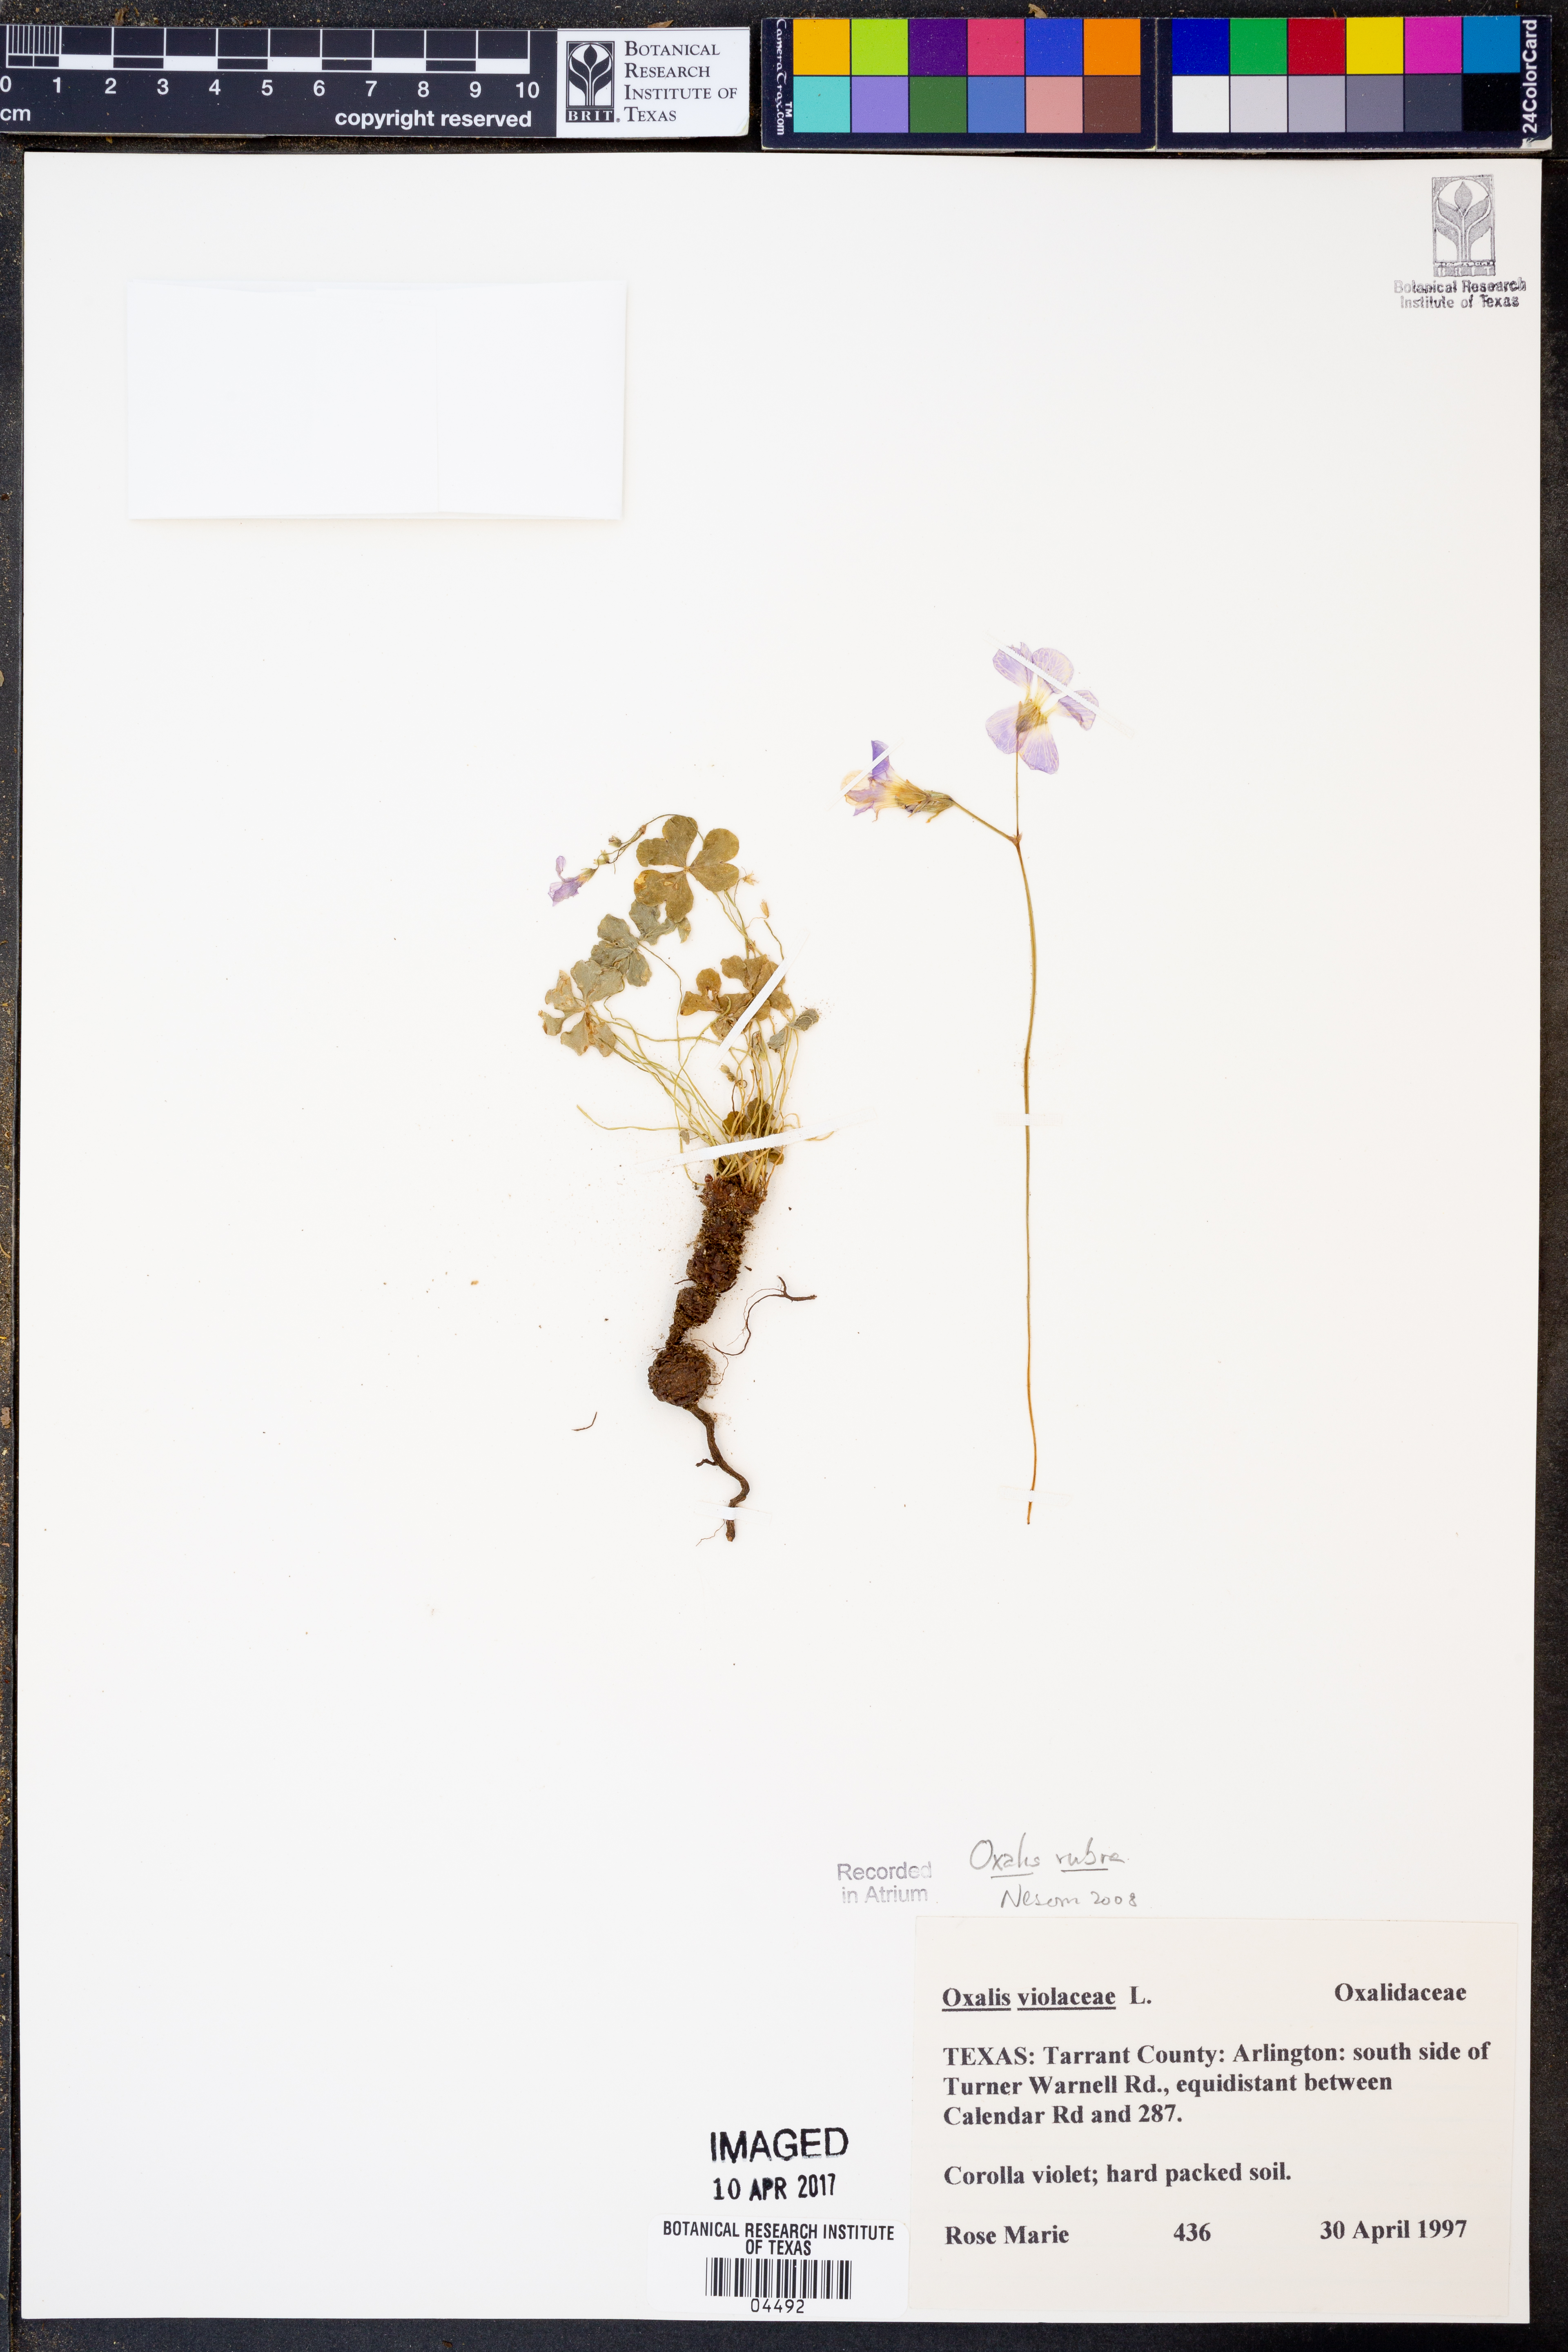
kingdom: Plantae
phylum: Tracheophyta
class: Magnoliopsida
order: Oxalidales
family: Oxalidaceae
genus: Oxalis
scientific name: Oxalis articulata
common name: Pink-sorrel
